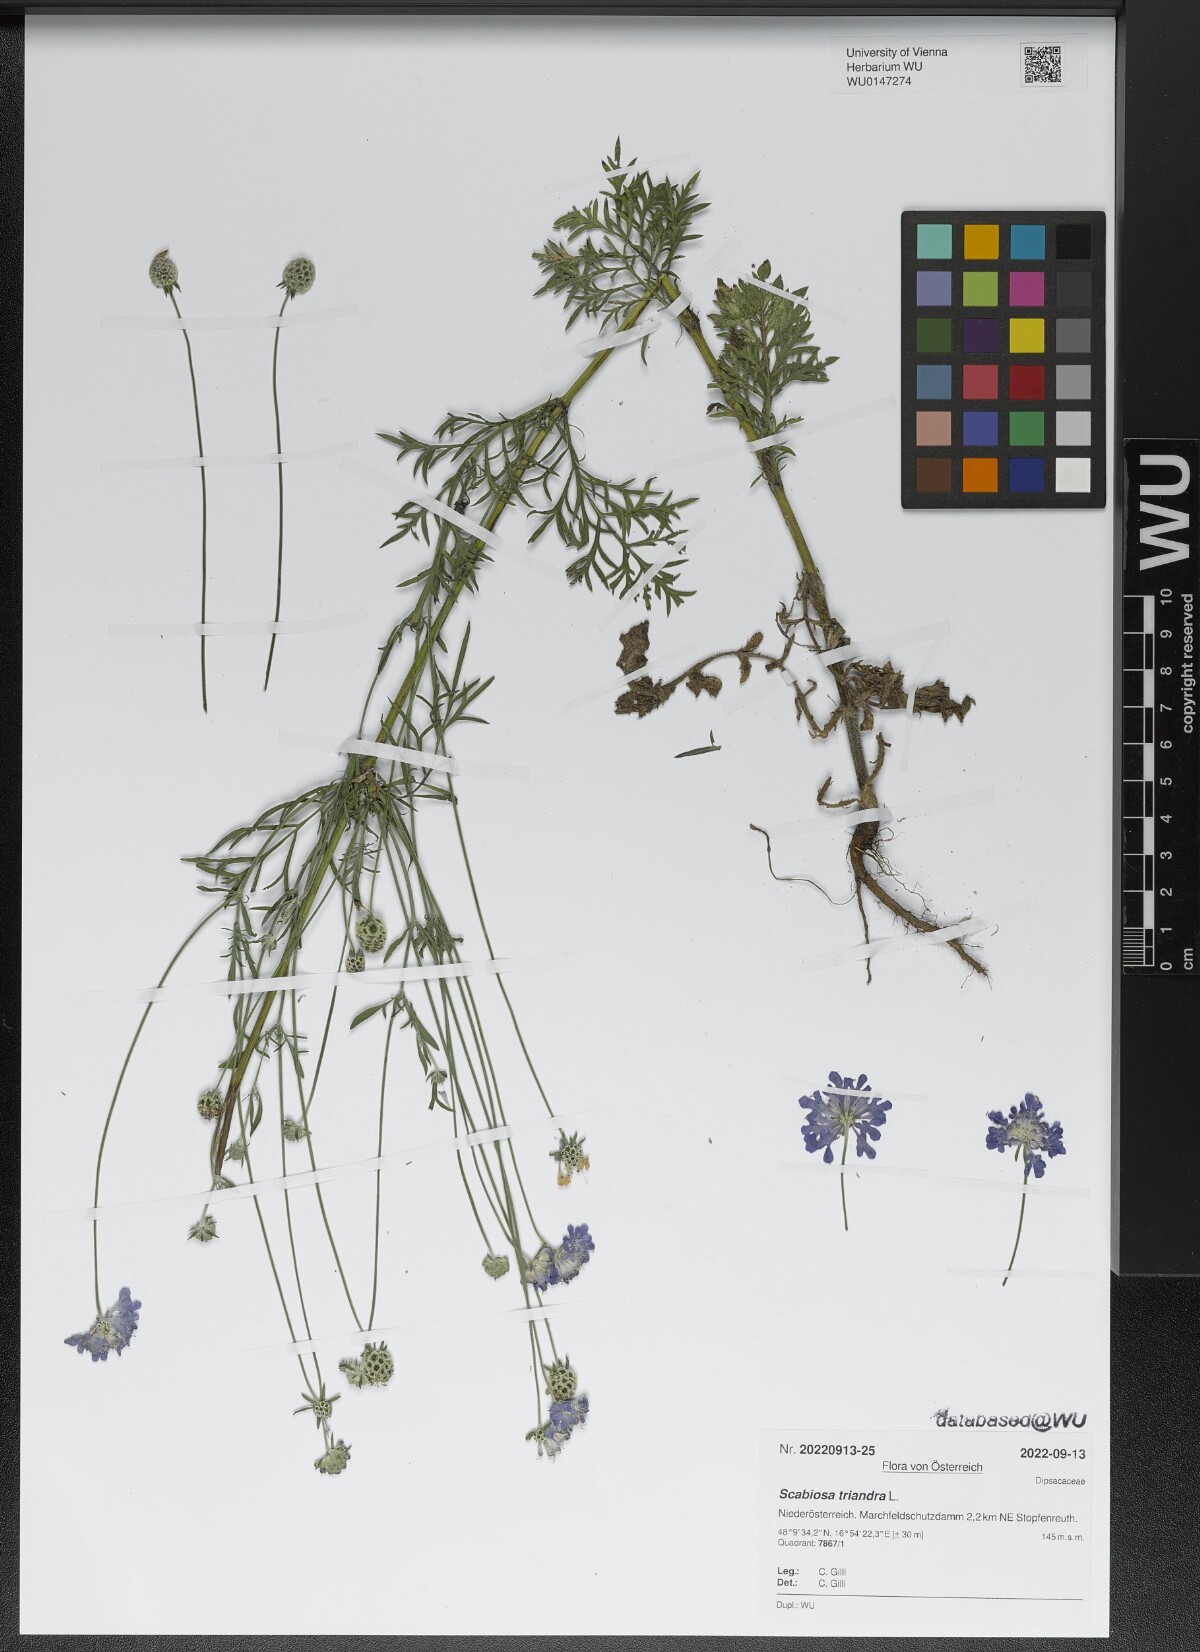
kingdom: Plantae
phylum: Tracheophyta
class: Magnoliopsida
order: Dipsacales
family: Caprifoliaceae
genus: Scabiosa
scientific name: Scabiosa triandra
